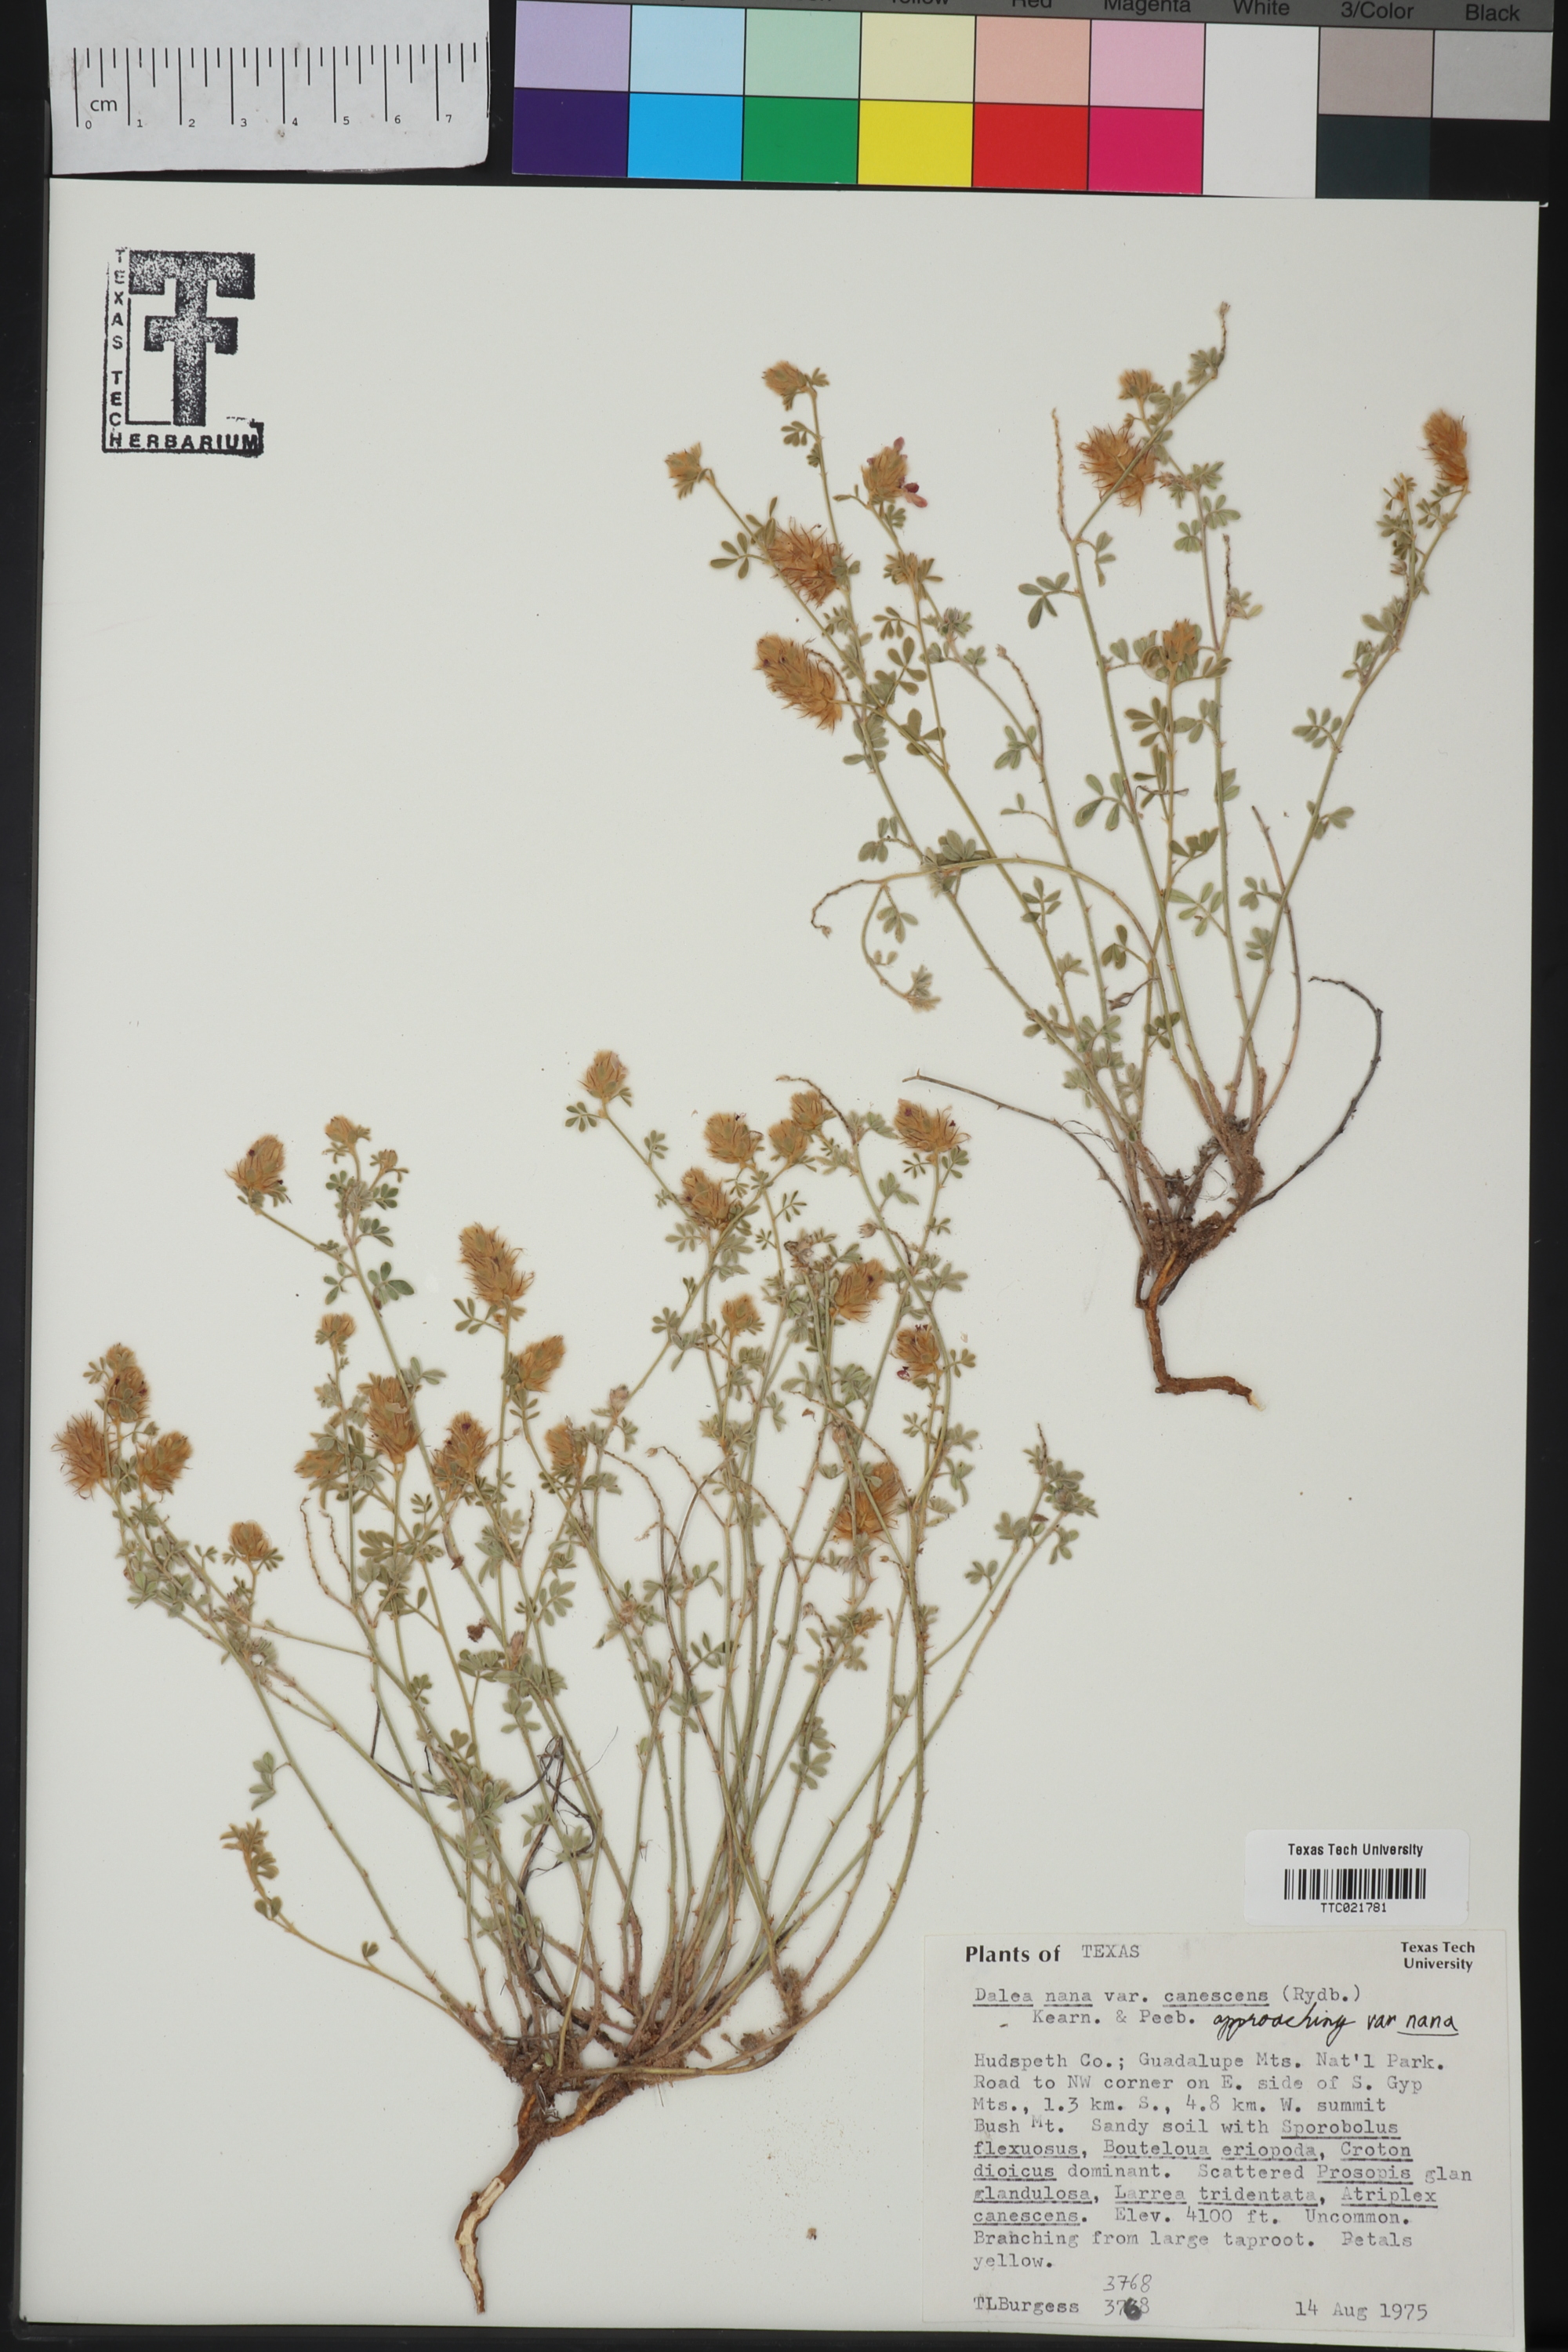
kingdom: Plantae
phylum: Tracheophyta
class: Magnoliopsida
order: Fabales
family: Fabaceae
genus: Dalea
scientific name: Dalea rubescens
